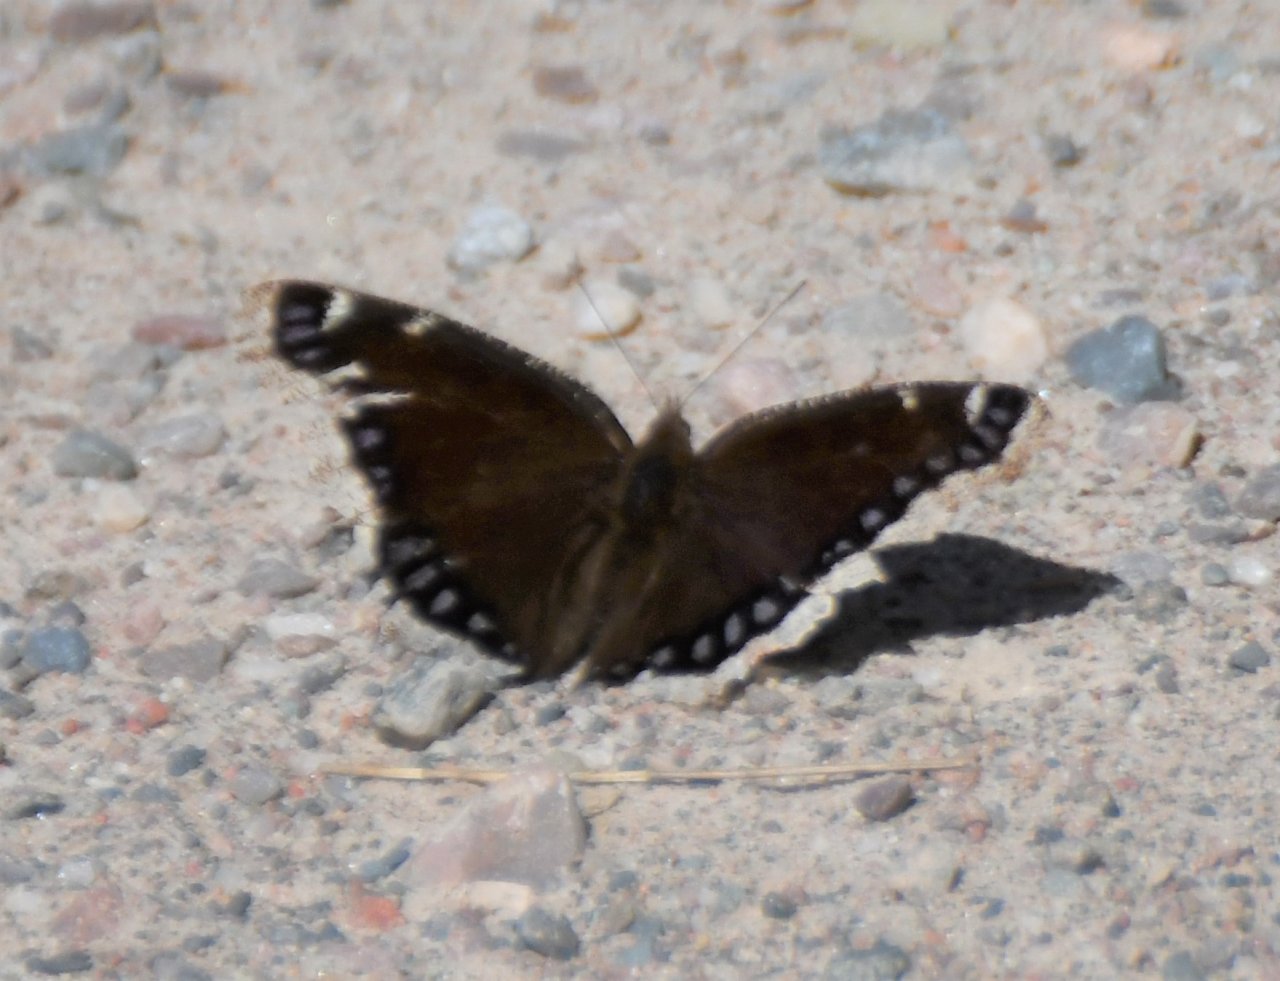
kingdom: Animalia
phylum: Arthropoda
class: Insecta
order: Lepidoptera
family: Nymphalidae
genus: Nymphalis
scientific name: Nymphalis antiopa
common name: Mourning Cloak
